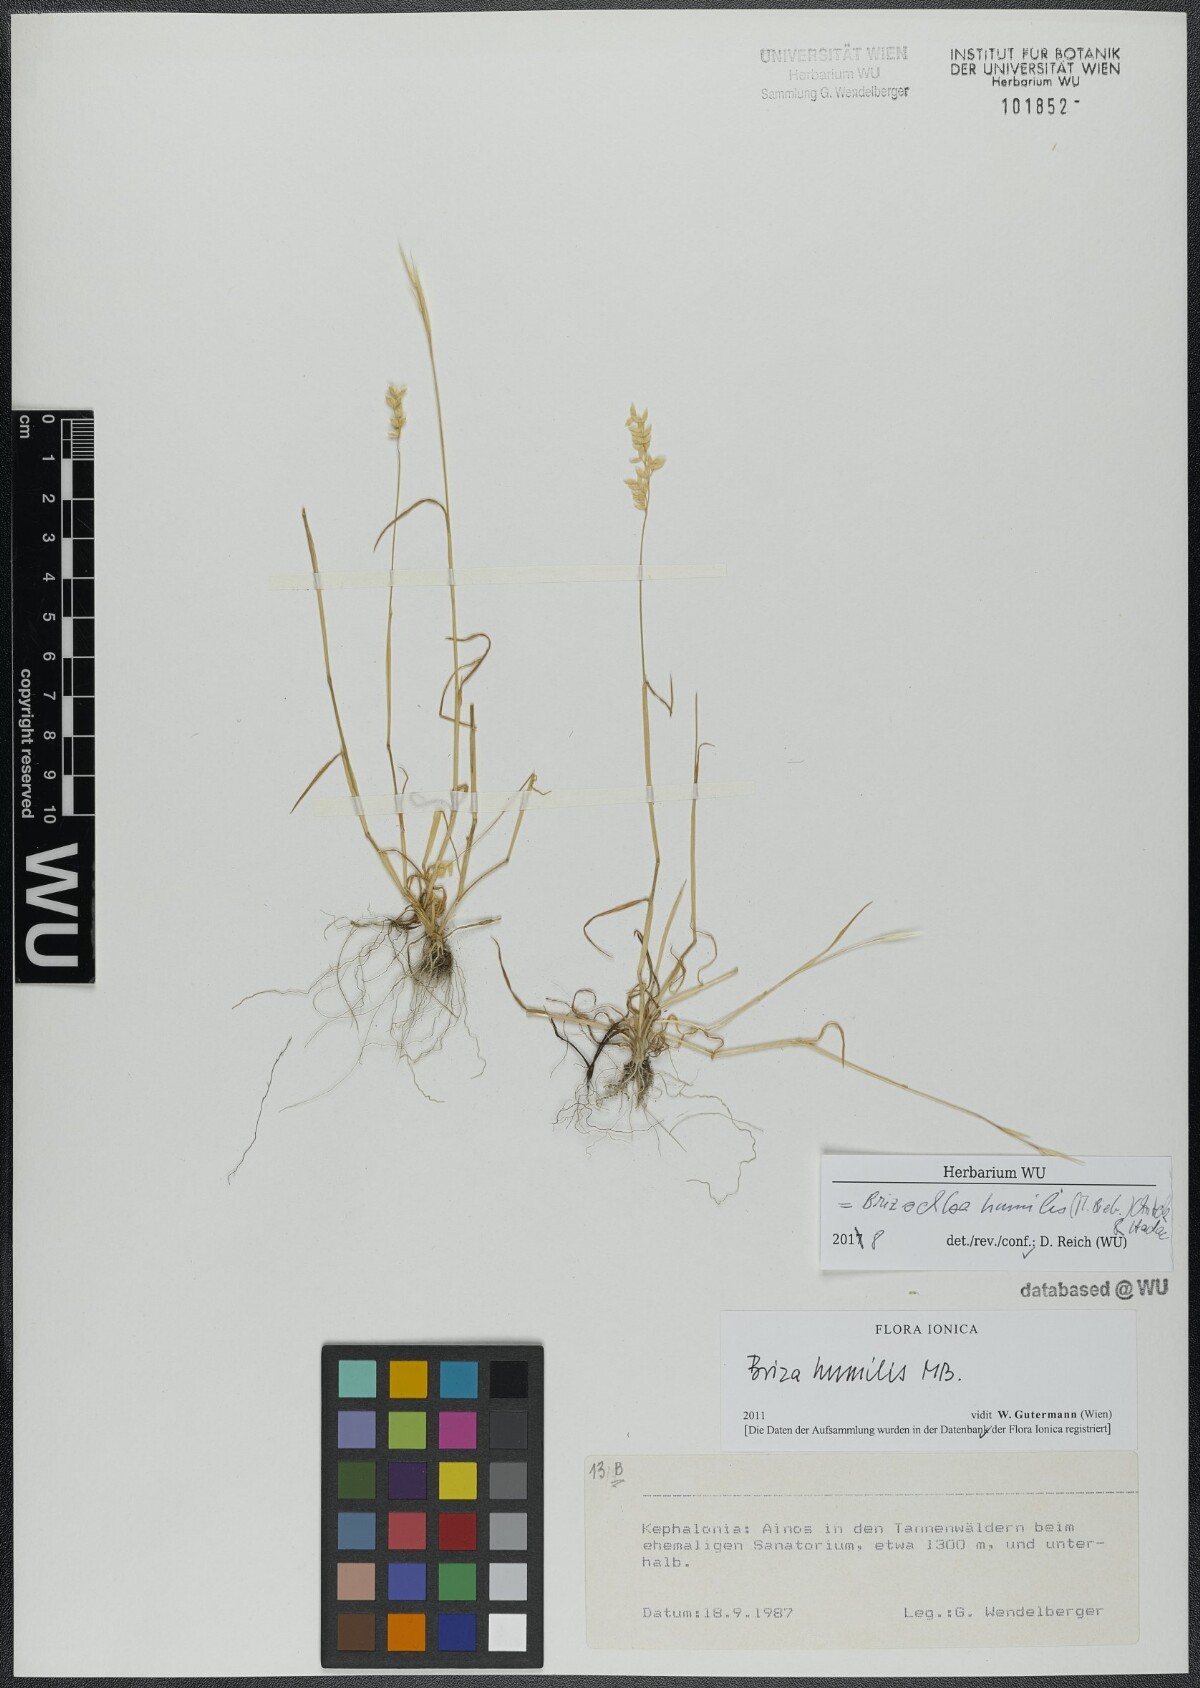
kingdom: Plantae
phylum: Tracheophyta
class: Liliopsida
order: Poales
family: Poaceae
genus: Briza
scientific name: Briza humilis
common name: Spiked quaking grass
